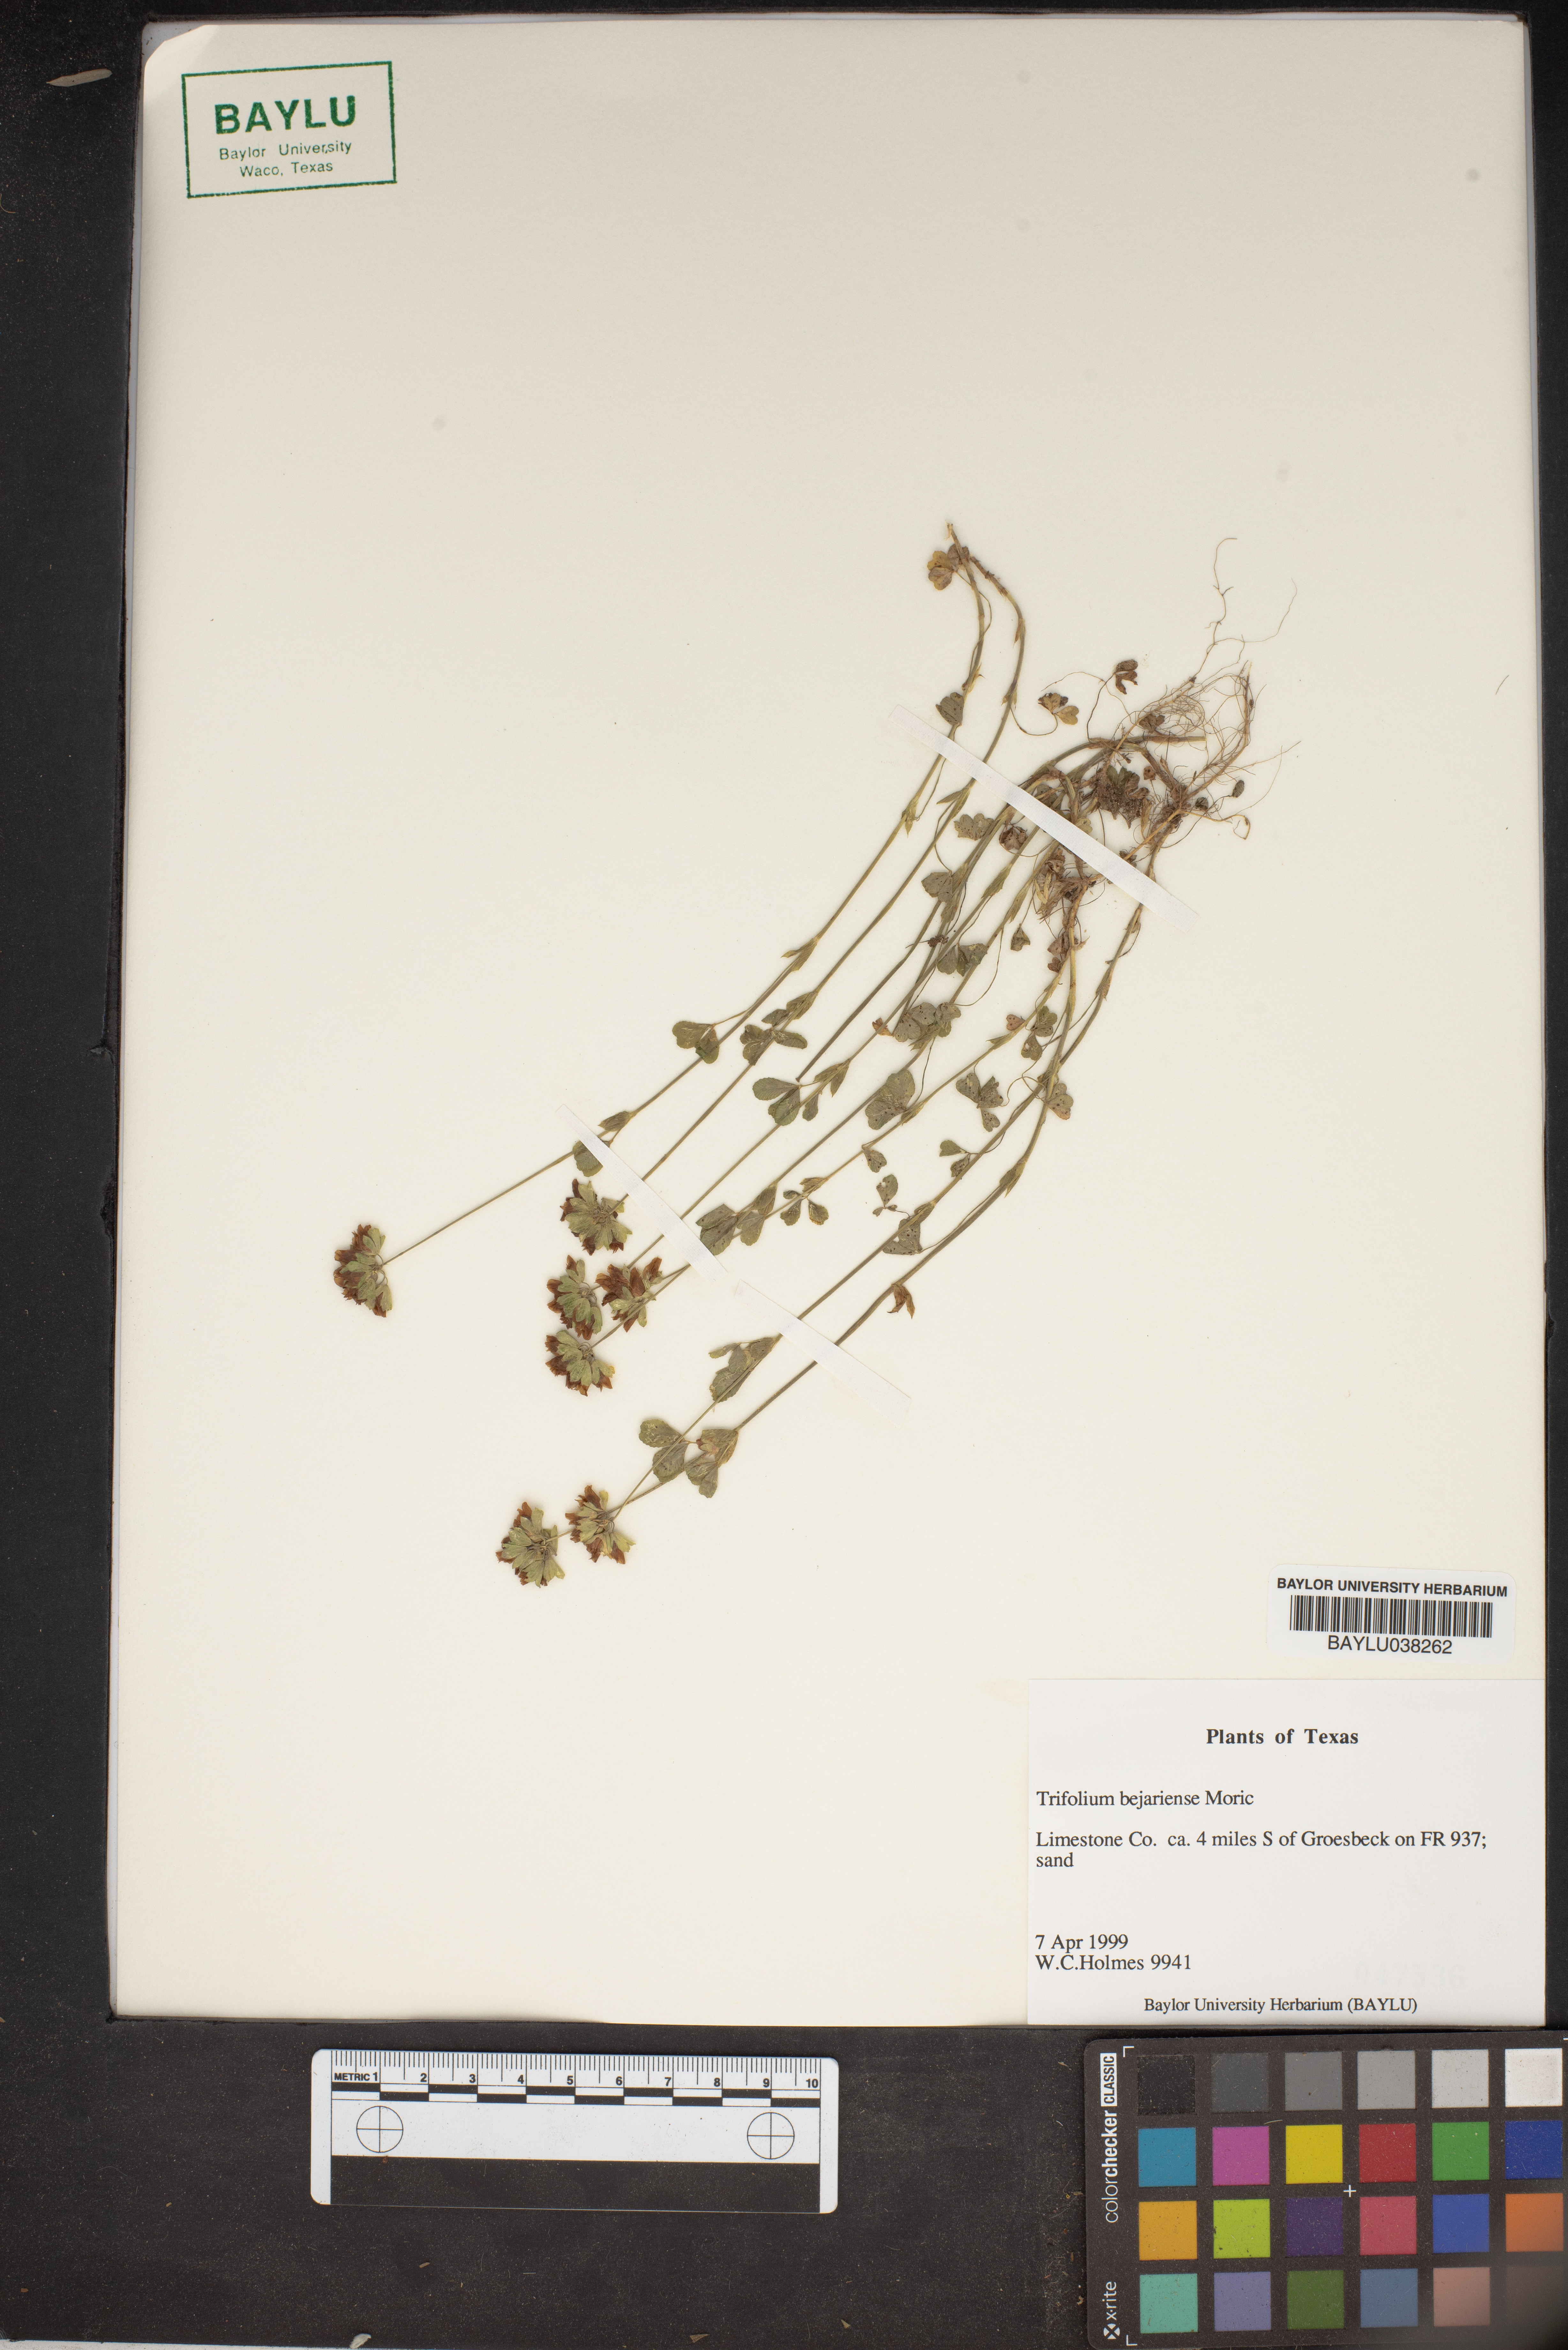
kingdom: Plantae
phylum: Tracheophyta
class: Magnoliopsida
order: Fabales
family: Fabaceae
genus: Trifolium
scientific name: Trifolium bejariense
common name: Bejar clover
